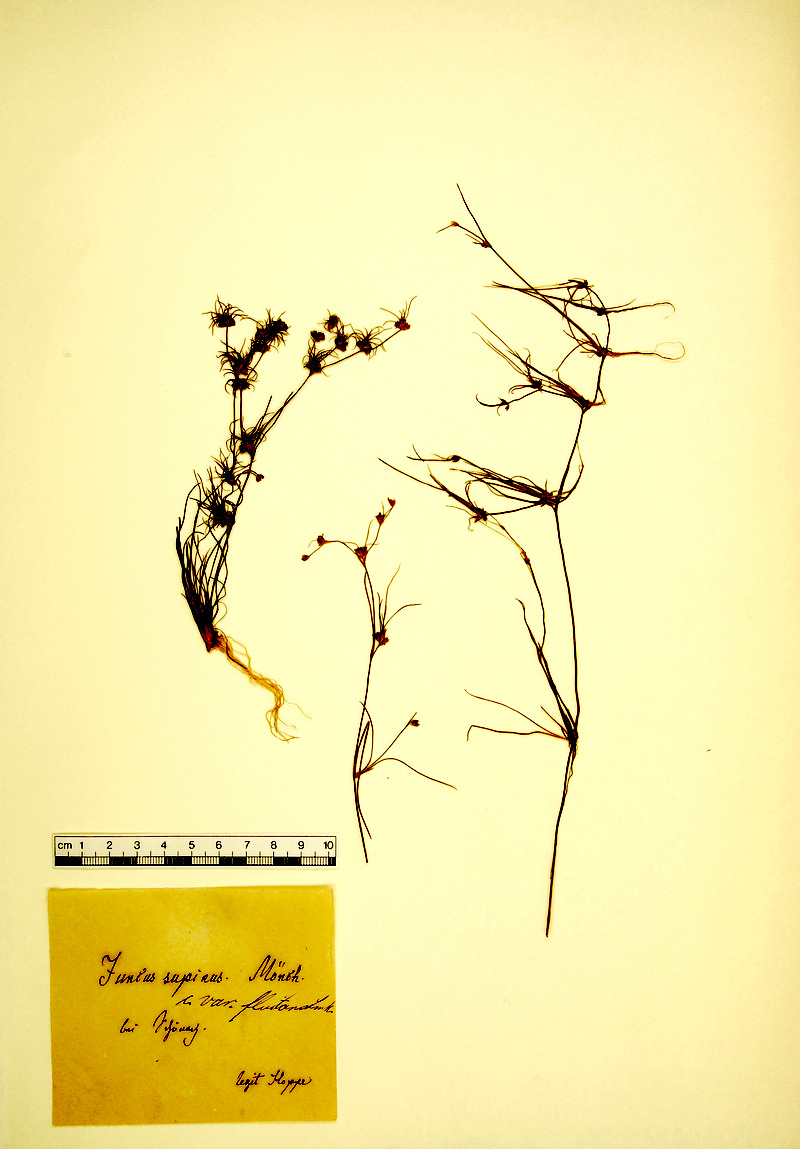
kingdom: Plantae
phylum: Tracheophyta
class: Liliopsida
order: Poales
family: Juncaceae
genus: Juncus
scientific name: Juncus articulatus
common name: Jointed rush
